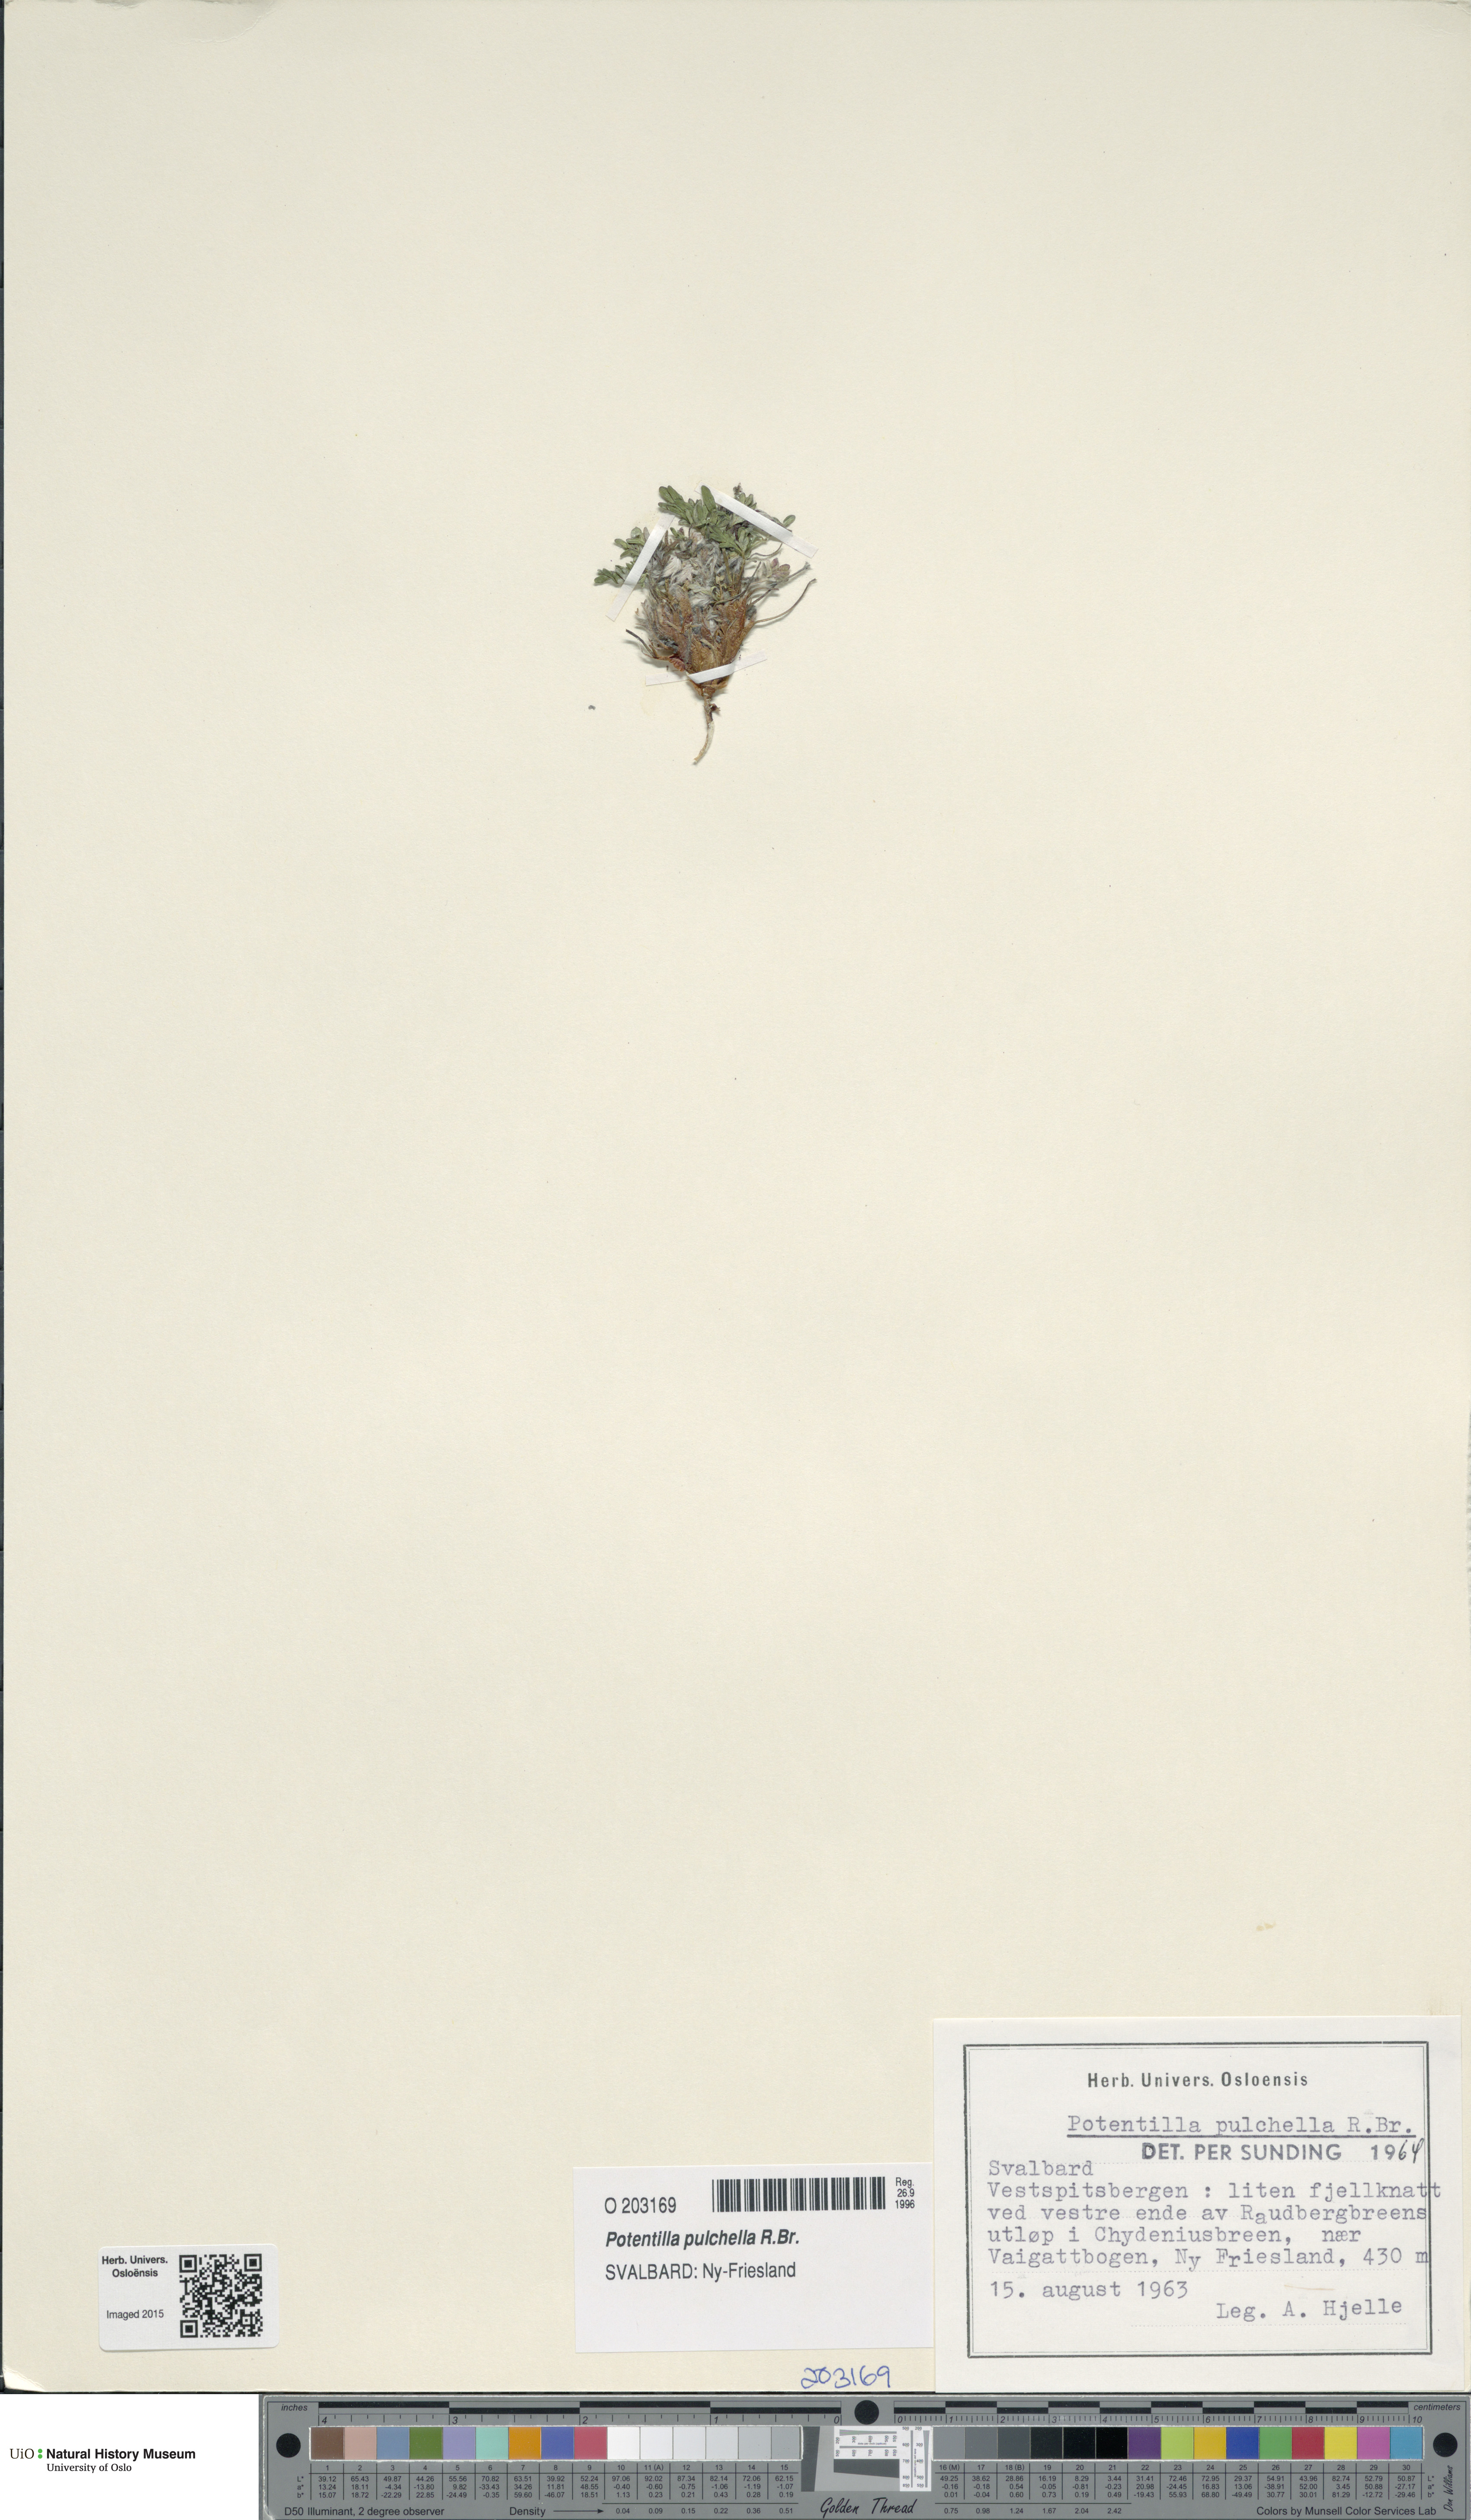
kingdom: Plantae
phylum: Tracheophyta
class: Magnoliopsida
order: Rosales
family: Rosaceae
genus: Potentilla
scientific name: Potentilla pulchella
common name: Pretty cinquefoil
